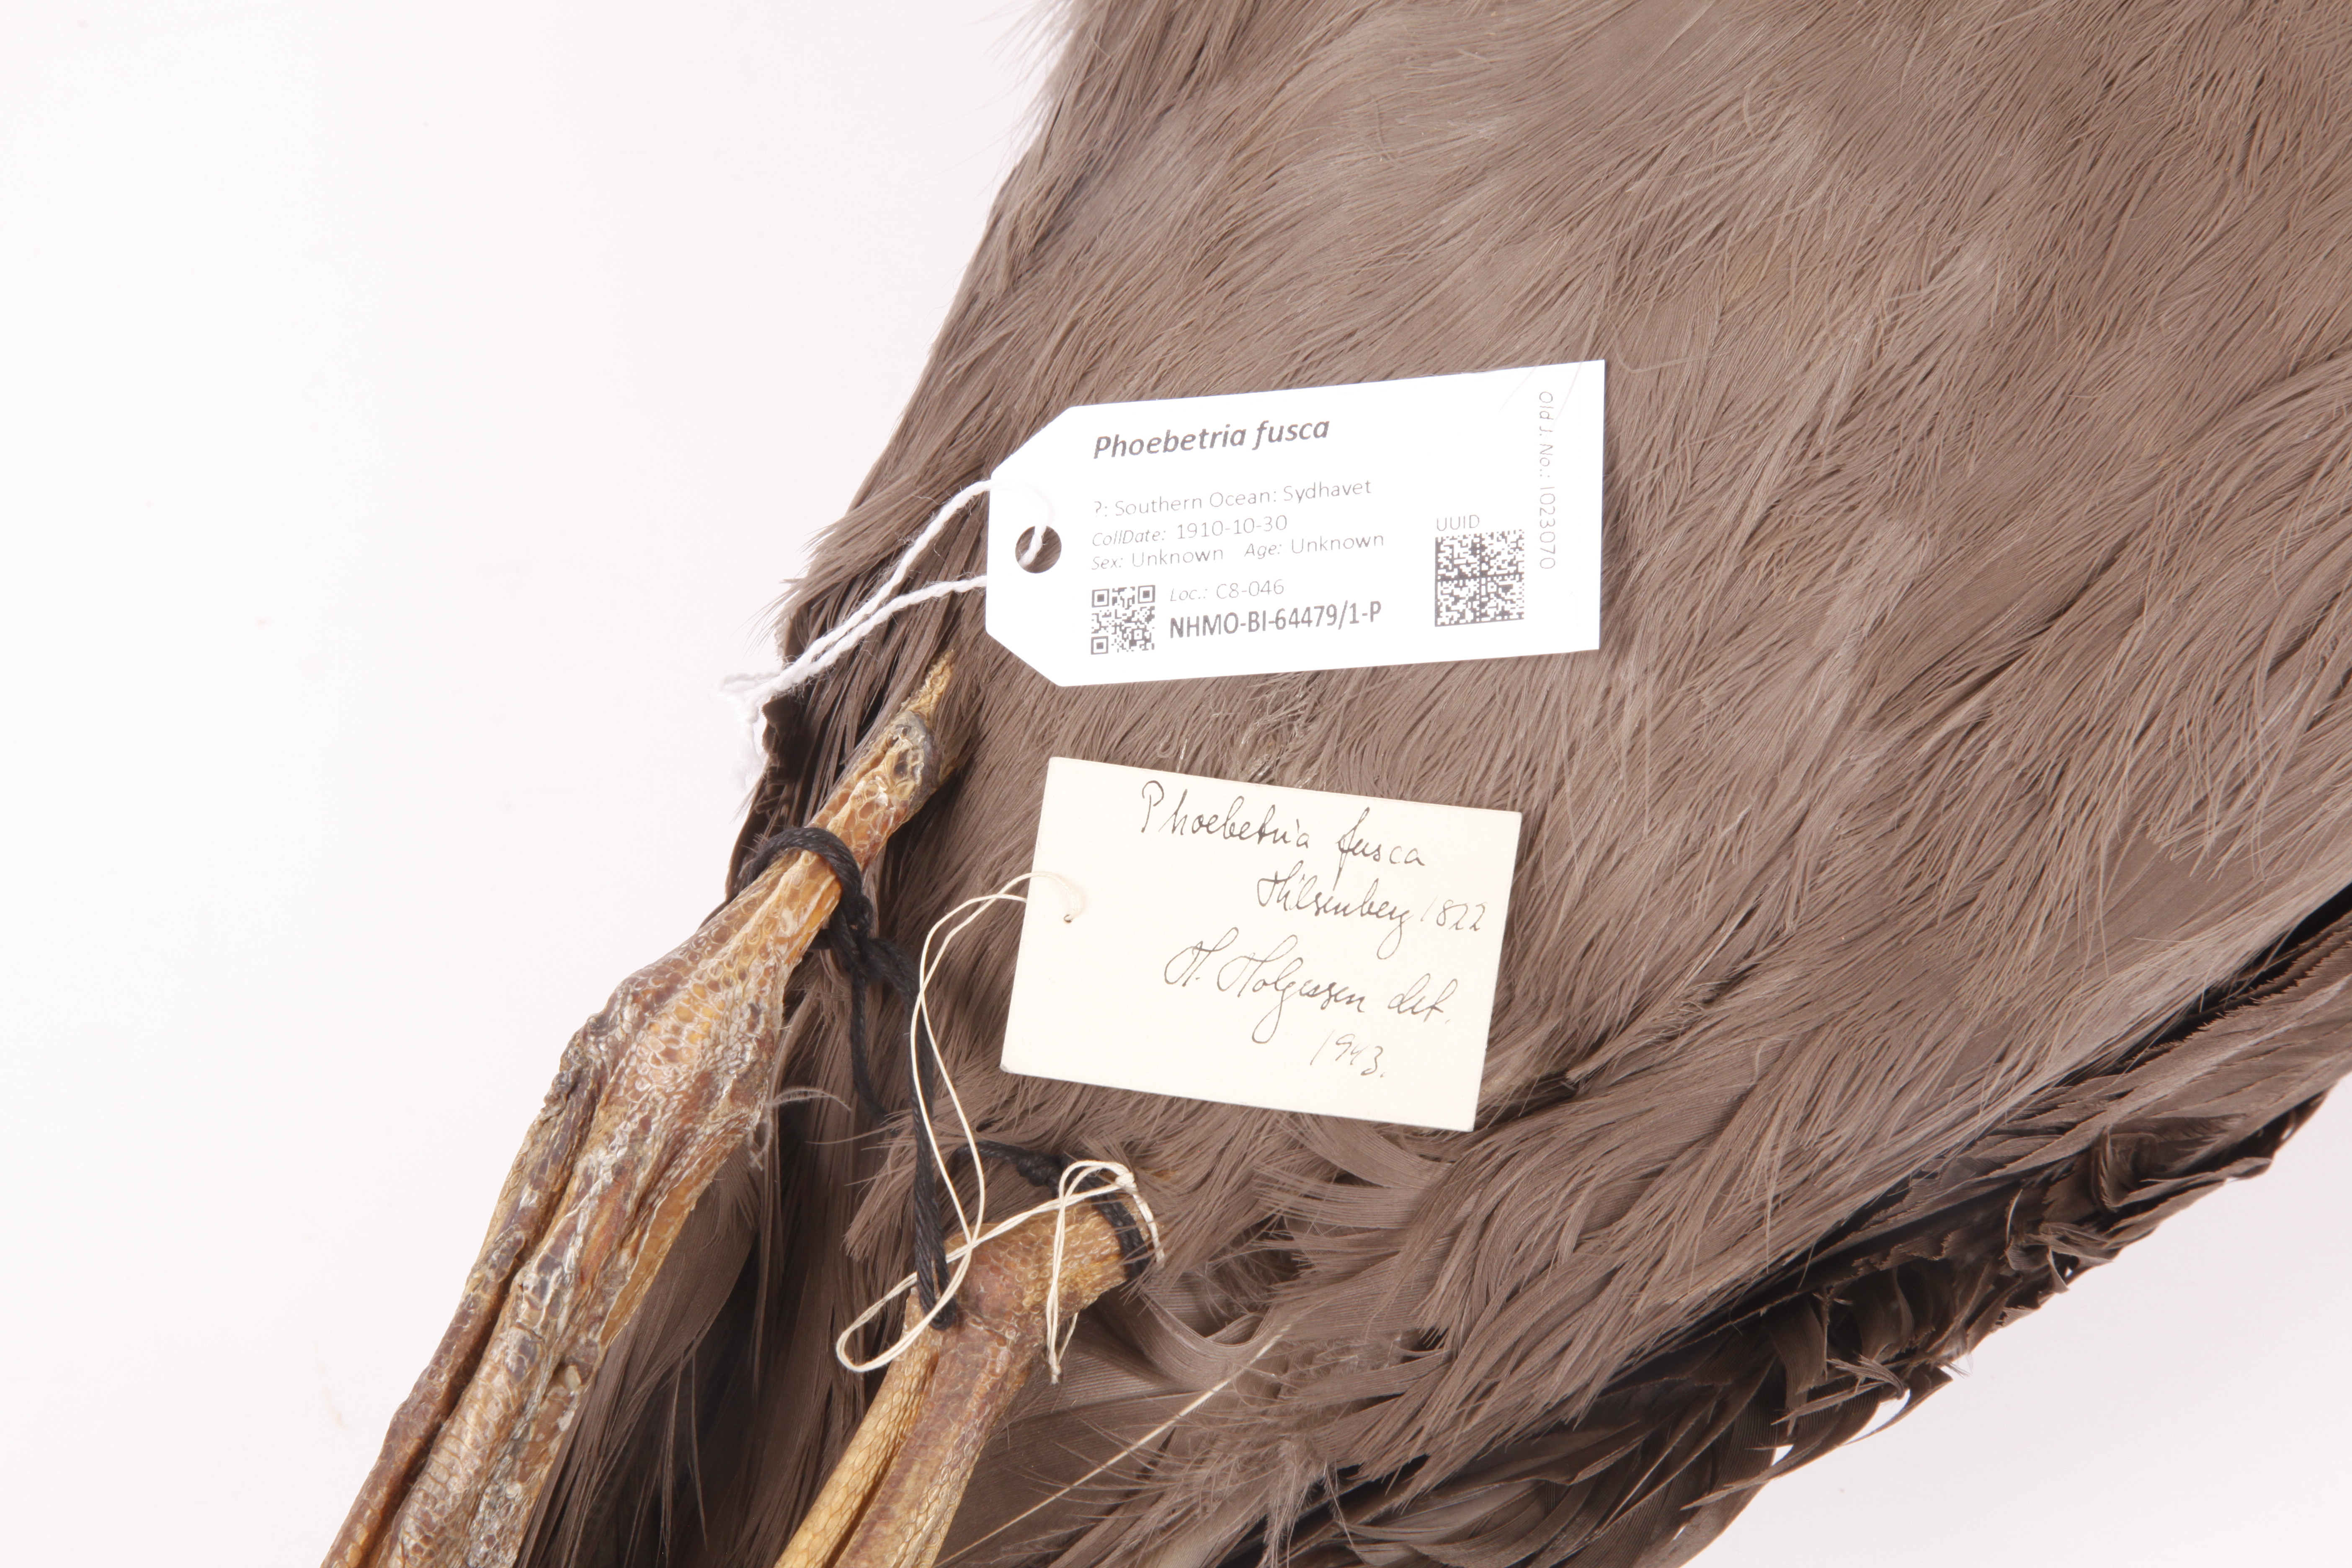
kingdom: Animalia
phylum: Chordata
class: Aves
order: Procellariiformes
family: Diomedeidae
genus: Phoebetria
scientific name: Phoebetria fusca
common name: Sooty albatross
